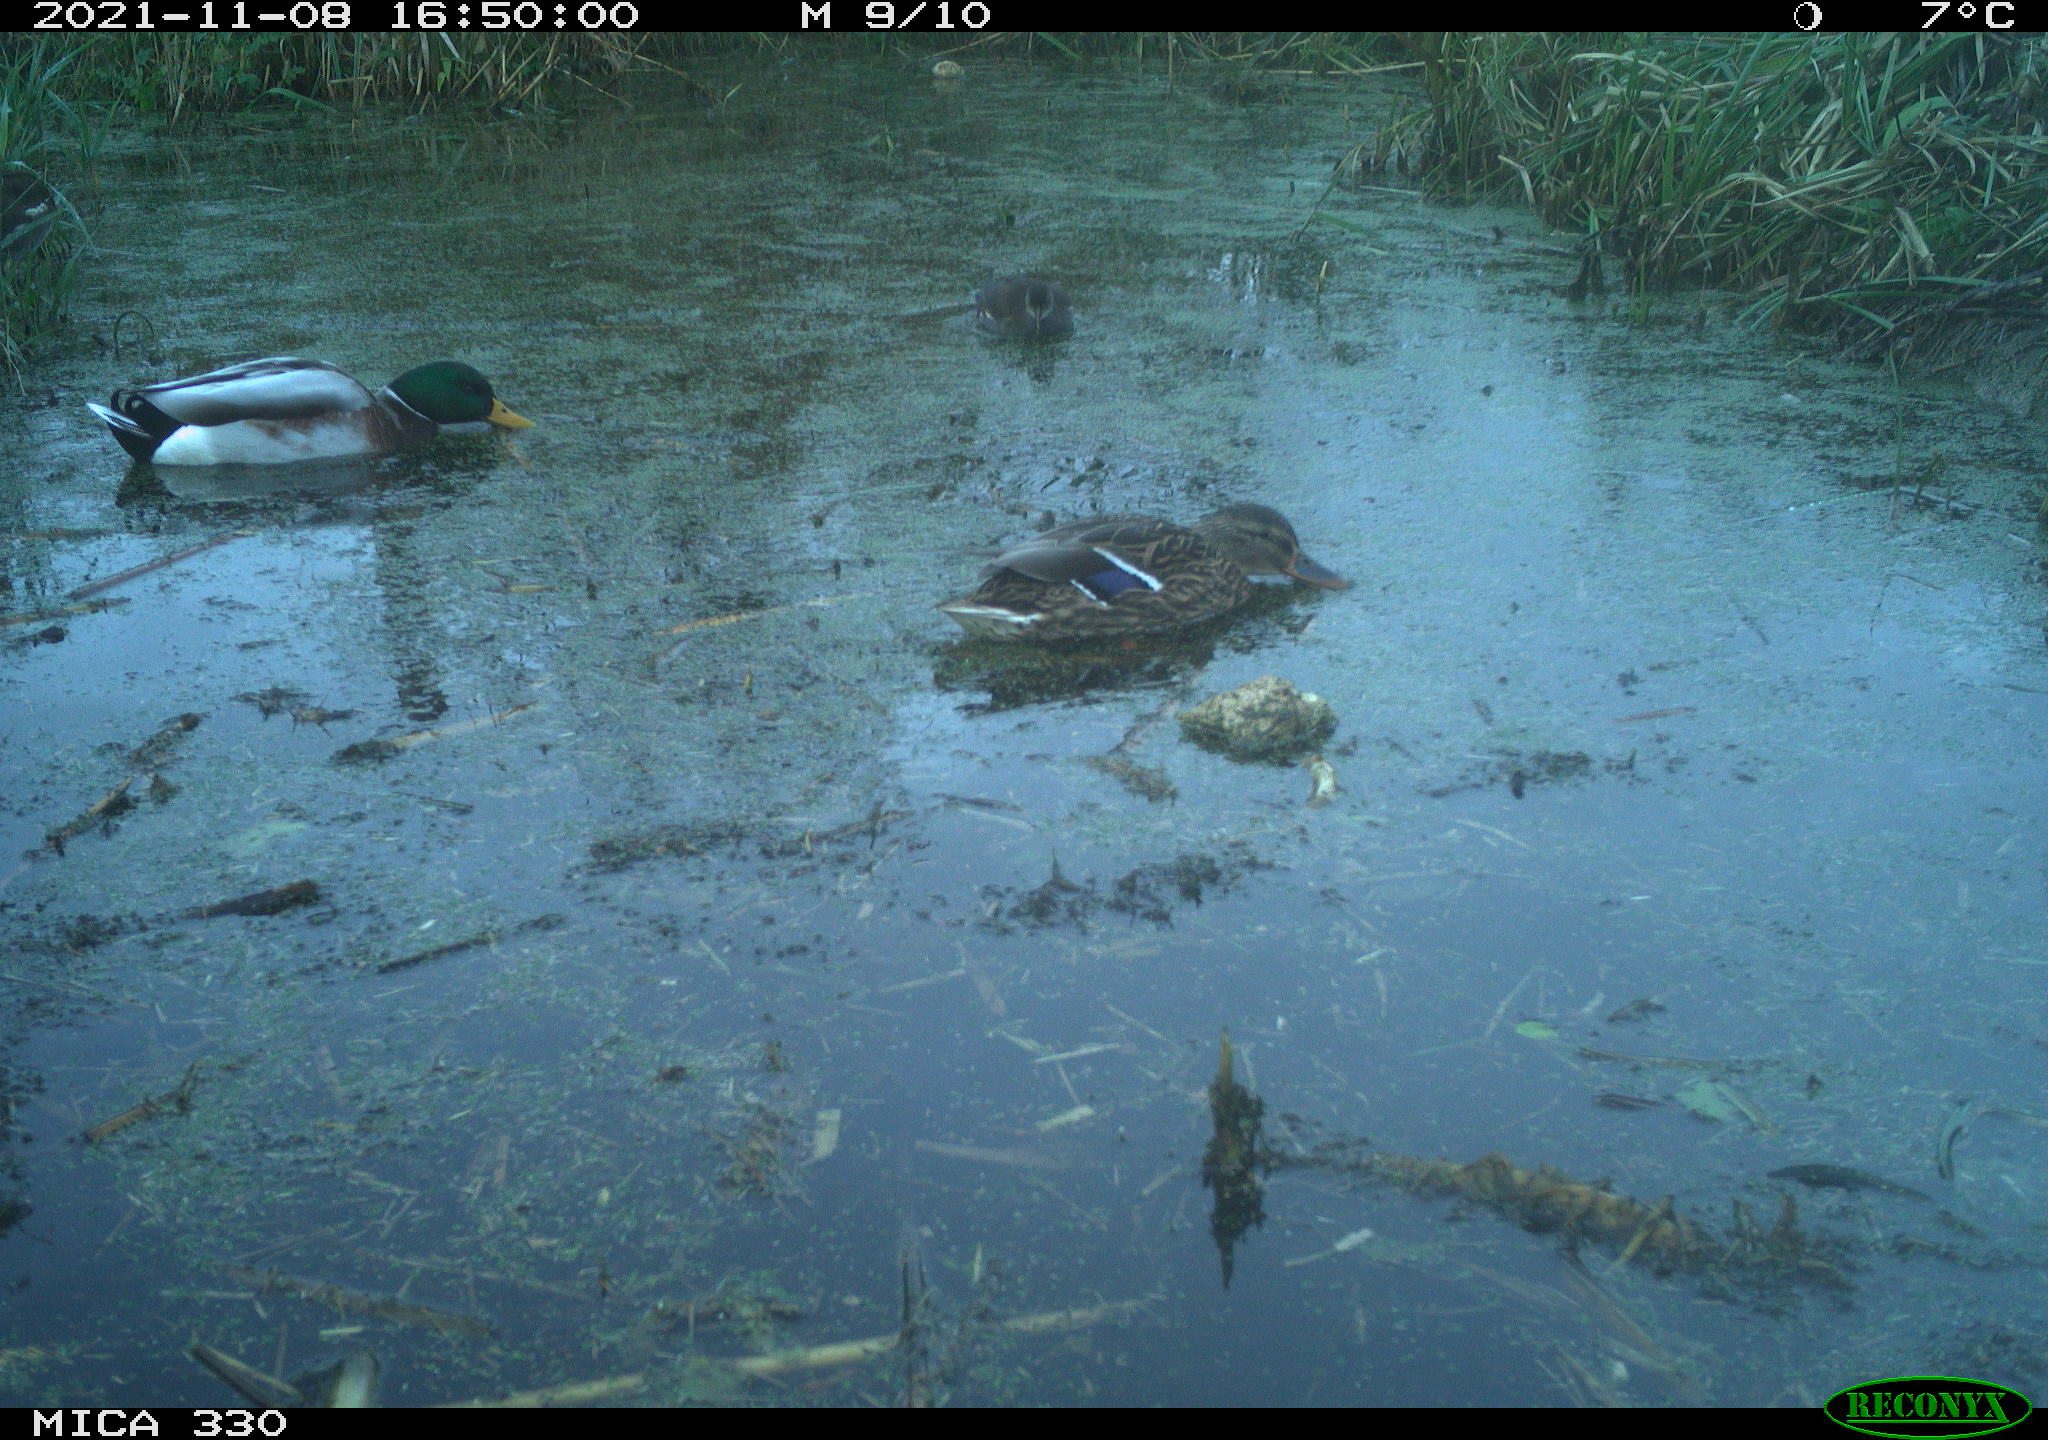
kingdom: Animalia
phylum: Chordata
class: Aves
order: Anseriformes
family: Anatidae
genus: Anas
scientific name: Anas platyrhynchos
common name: Mallard
